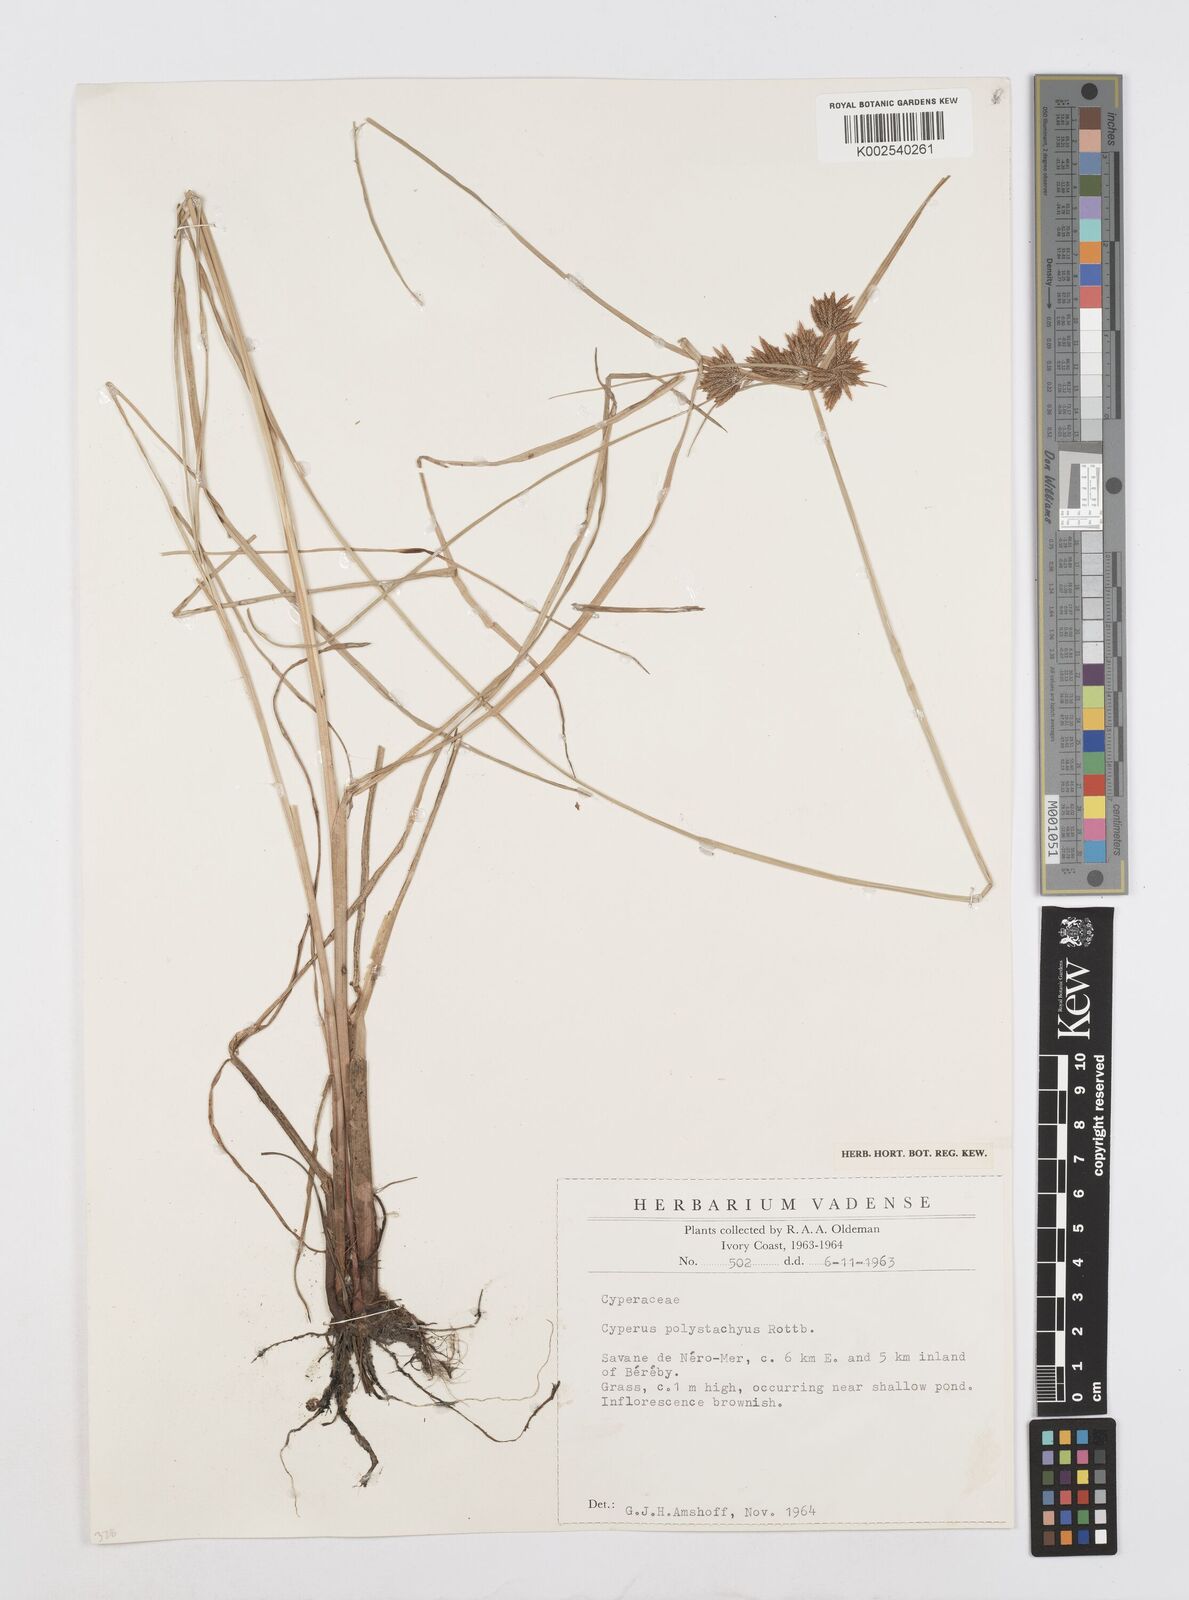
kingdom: Plantae
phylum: Tracheophyta
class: Liliopsida
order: Poales
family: Cyperaceae
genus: Cyperus
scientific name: Cyperus polystachyos
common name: Bunchy flat sedge
